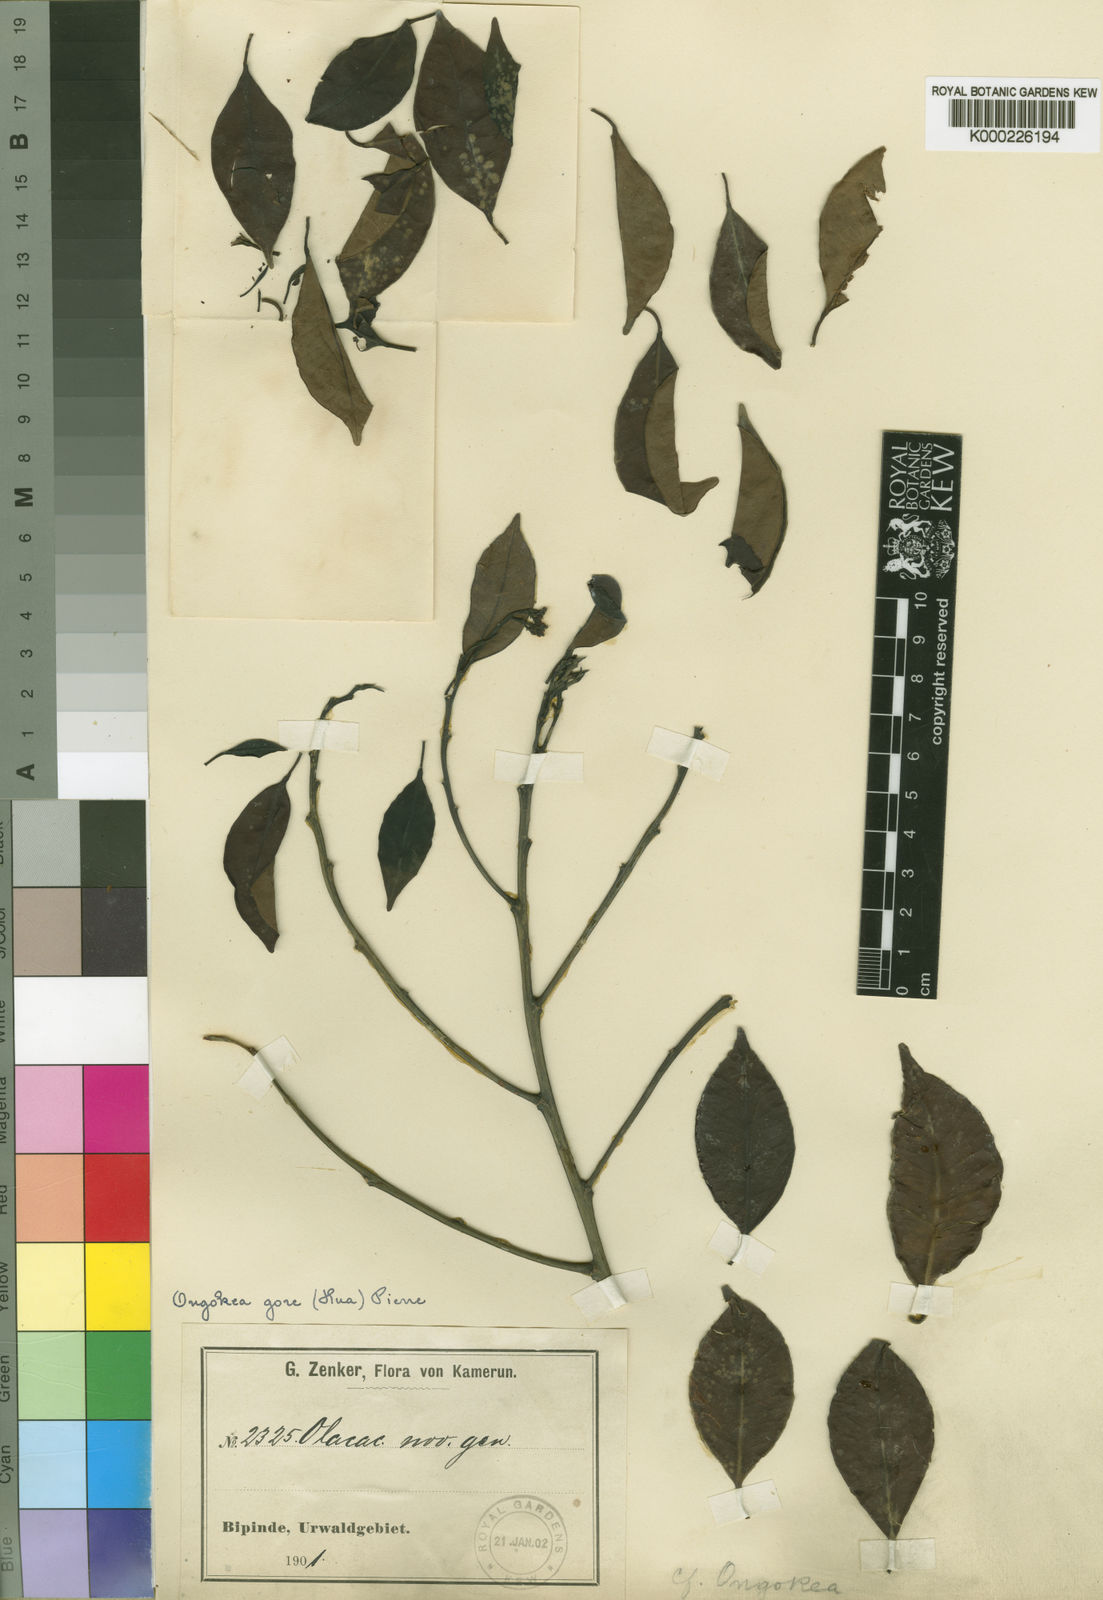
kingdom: Plantae
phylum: Tracheophyta
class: Magnoliopsida
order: Santalales
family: Aptandraceae
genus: Ongokea
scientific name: Ongokea gore
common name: Boleko-nut
